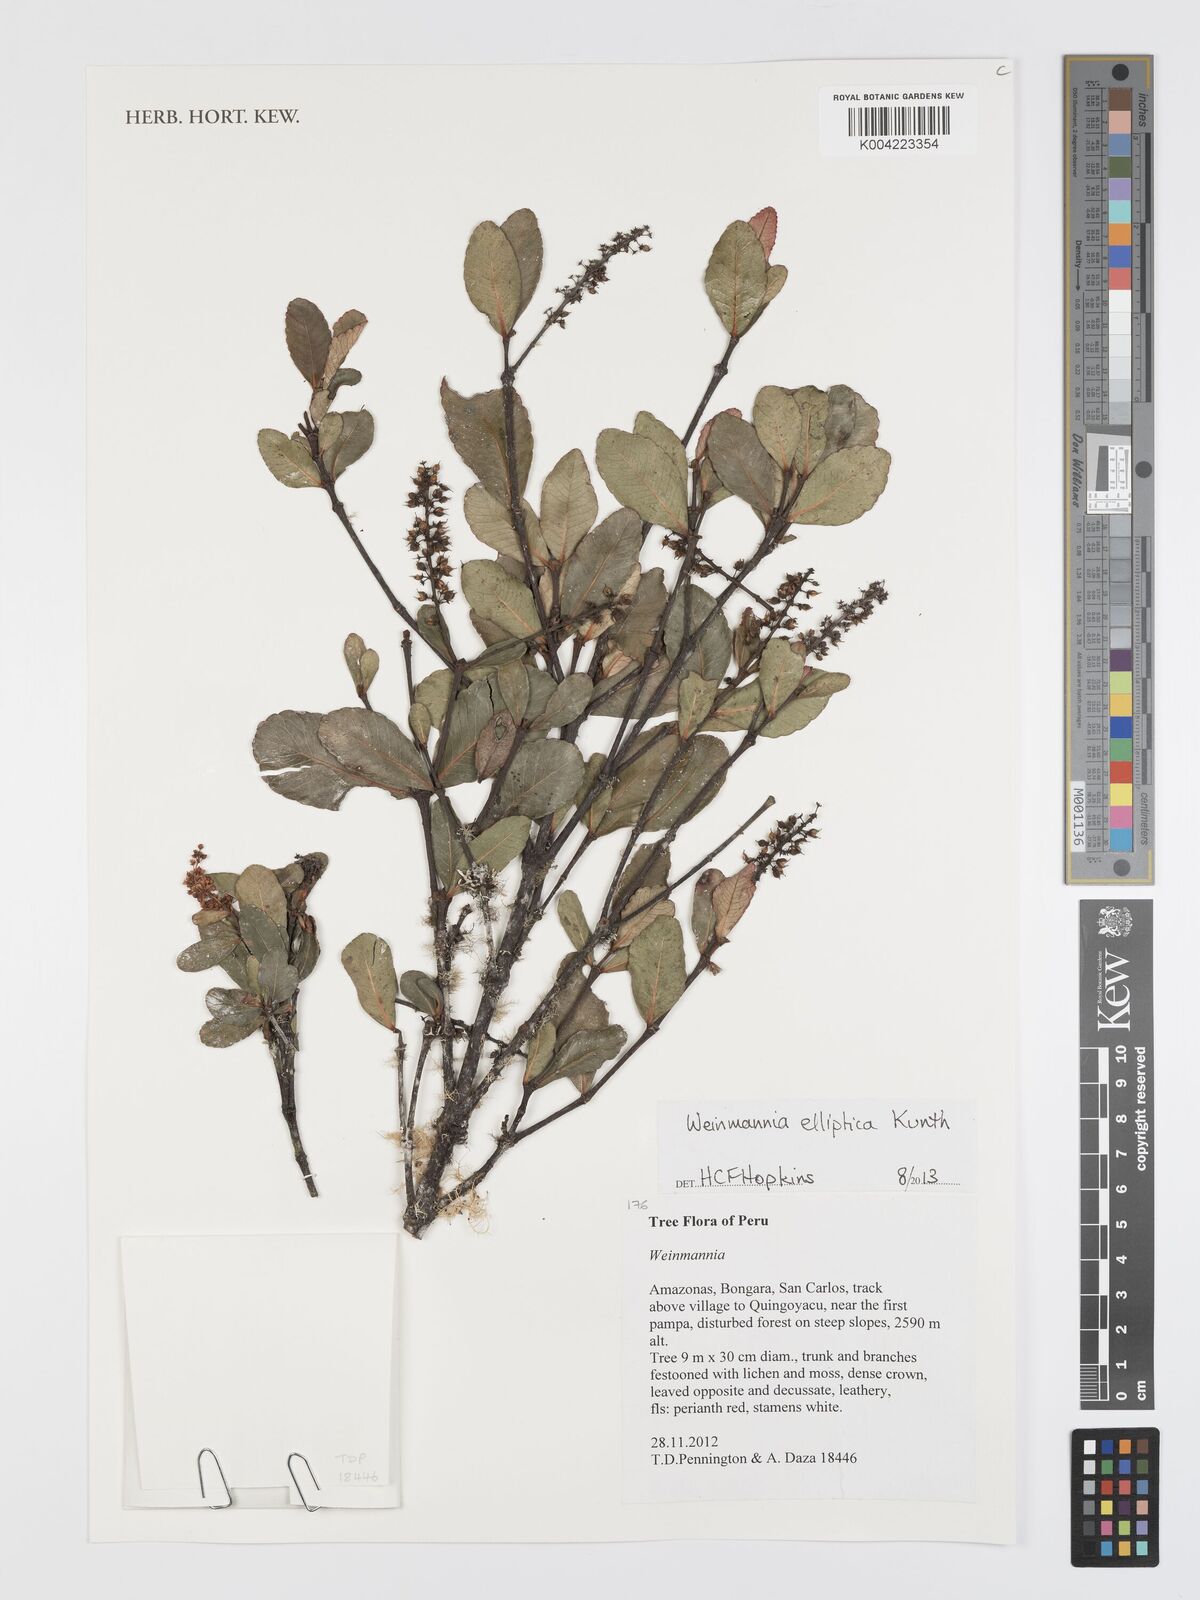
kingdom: Plantae
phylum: Tracheophyta
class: Magnoliopsida
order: Oxalidales
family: Cunoniaceae
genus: Weinmannia
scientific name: Weinmannia elliptica
